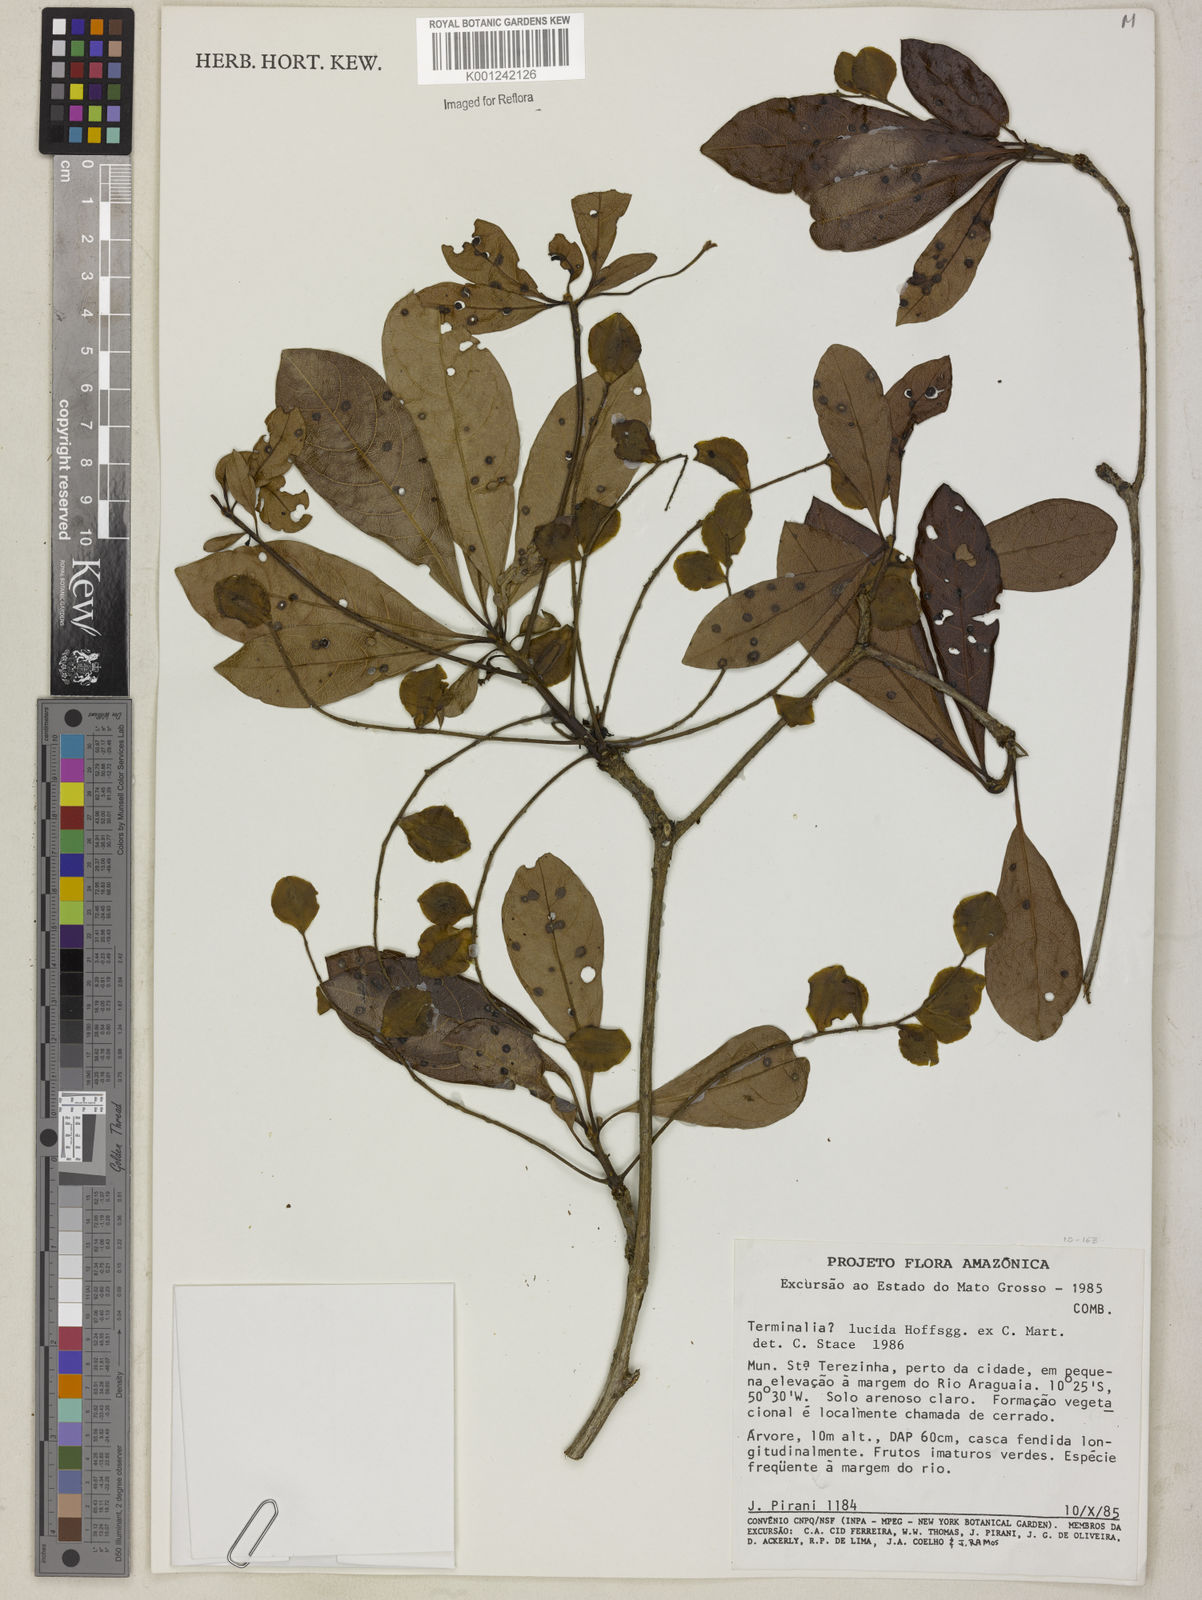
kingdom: Plantae
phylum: Tracheophyta
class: Magnoliopsida
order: Myrtales
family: Combretaceae
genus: Terminalia
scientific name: Terminalia lucida
